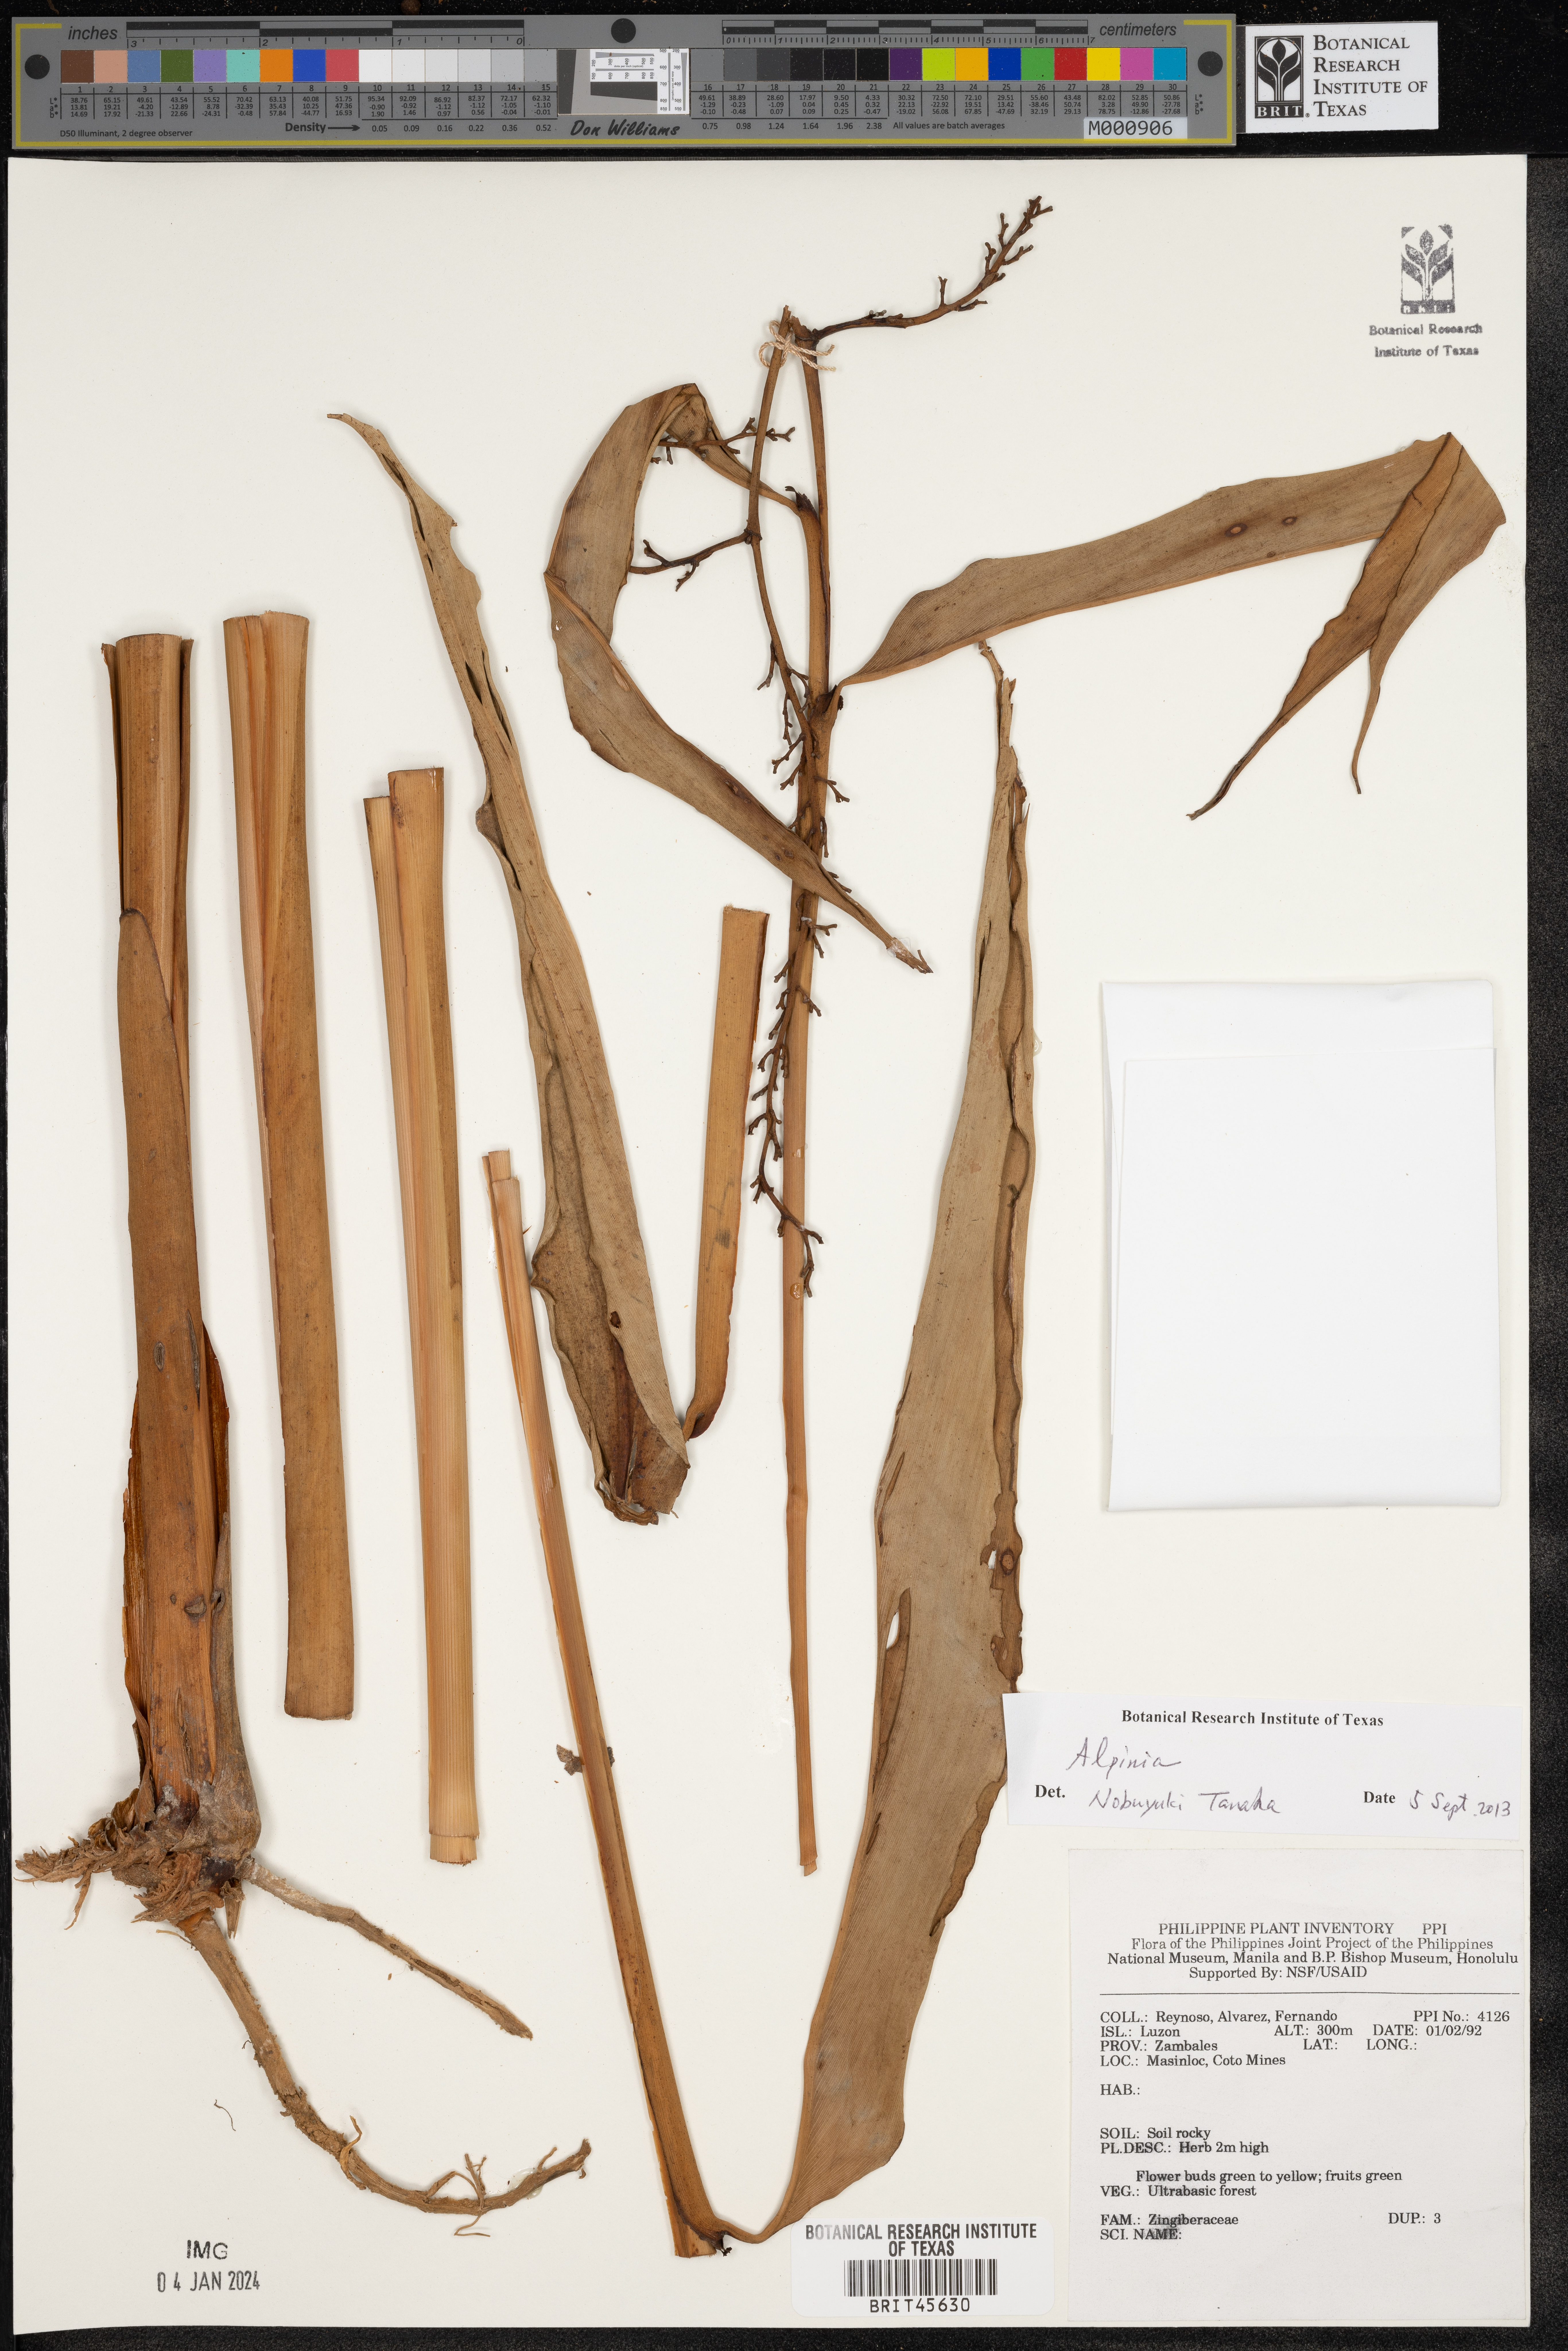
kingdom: Plantae
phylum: Tracheophyta
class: Liliopsida
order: Zingiberales
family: Zingiberaceae
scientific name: Zingiberaceae
